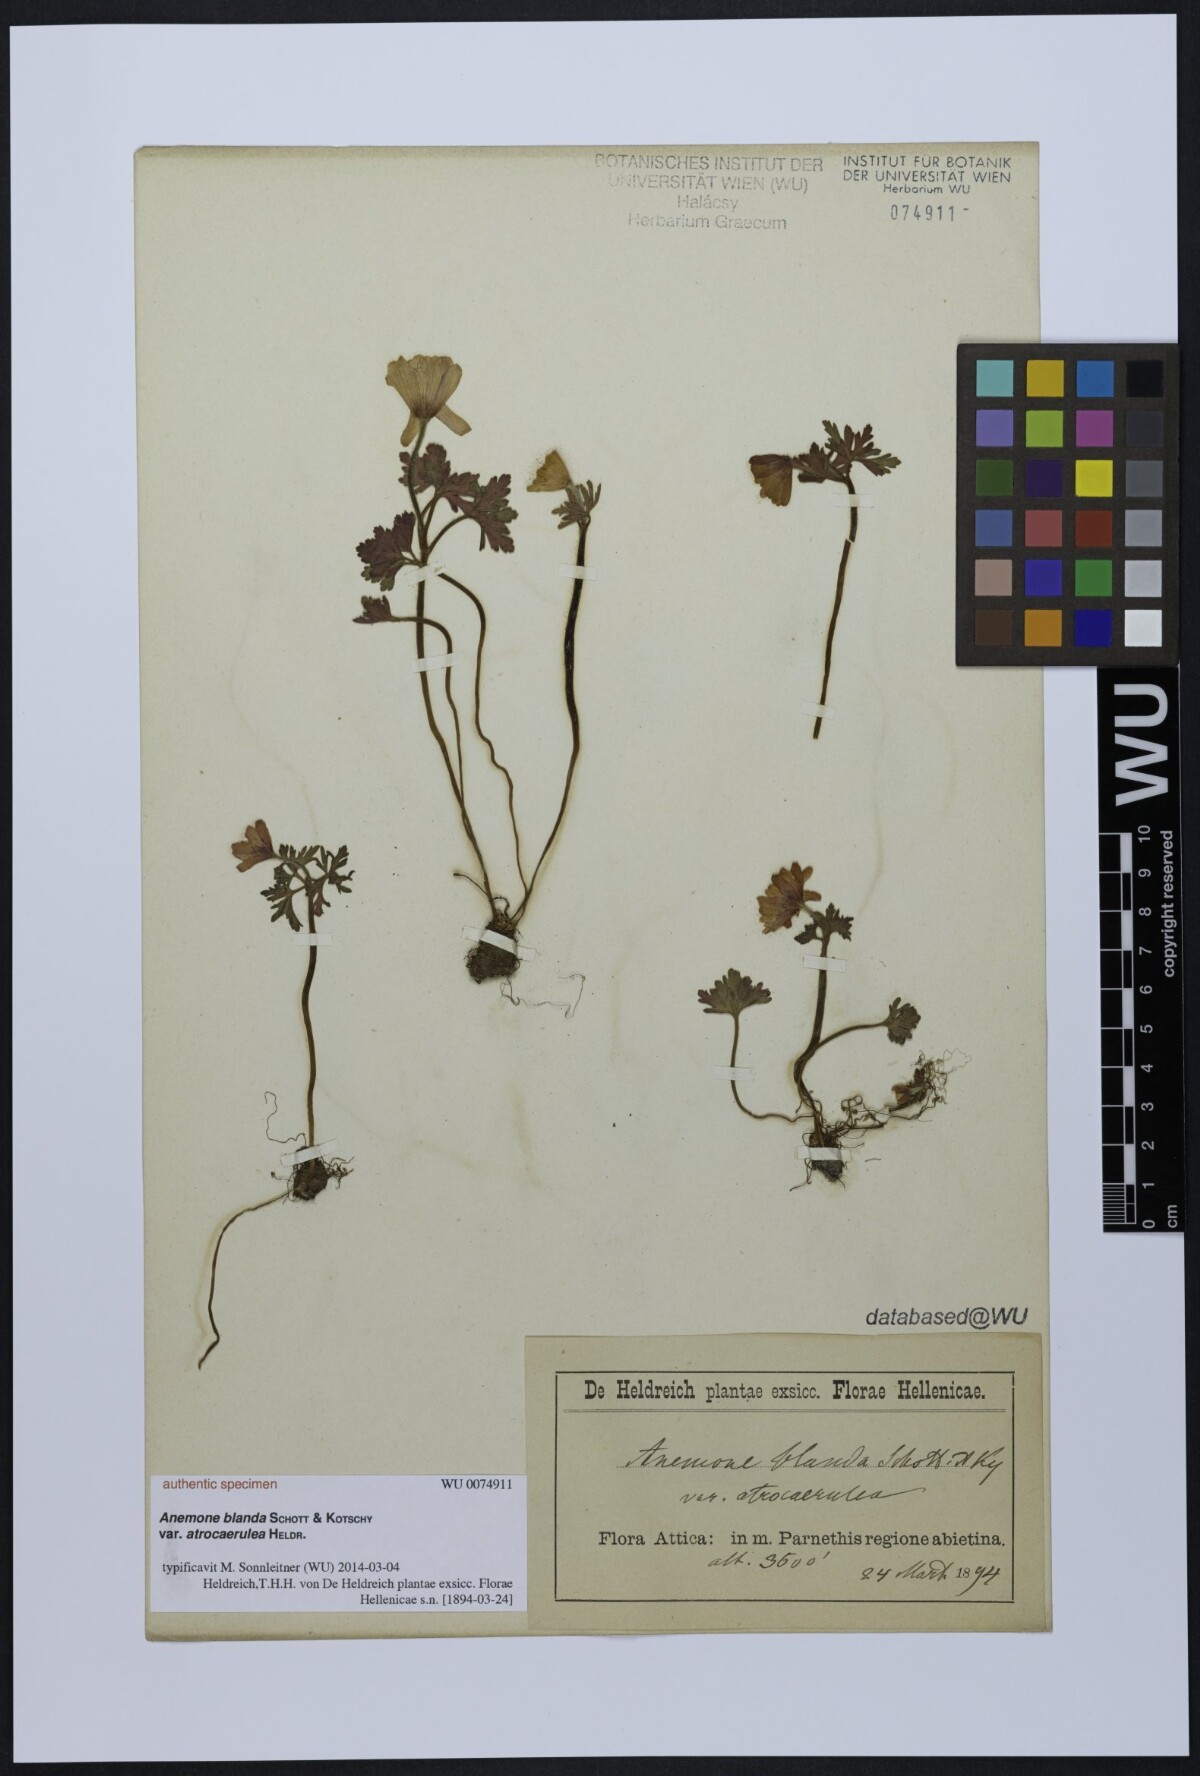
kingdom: Plantae
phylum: Tracheophyta
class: Magnoliopsida
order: Ranunculales
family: Ranunculaceae
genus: Anemone
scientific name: Anemone blanda
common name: Balkan anemone
